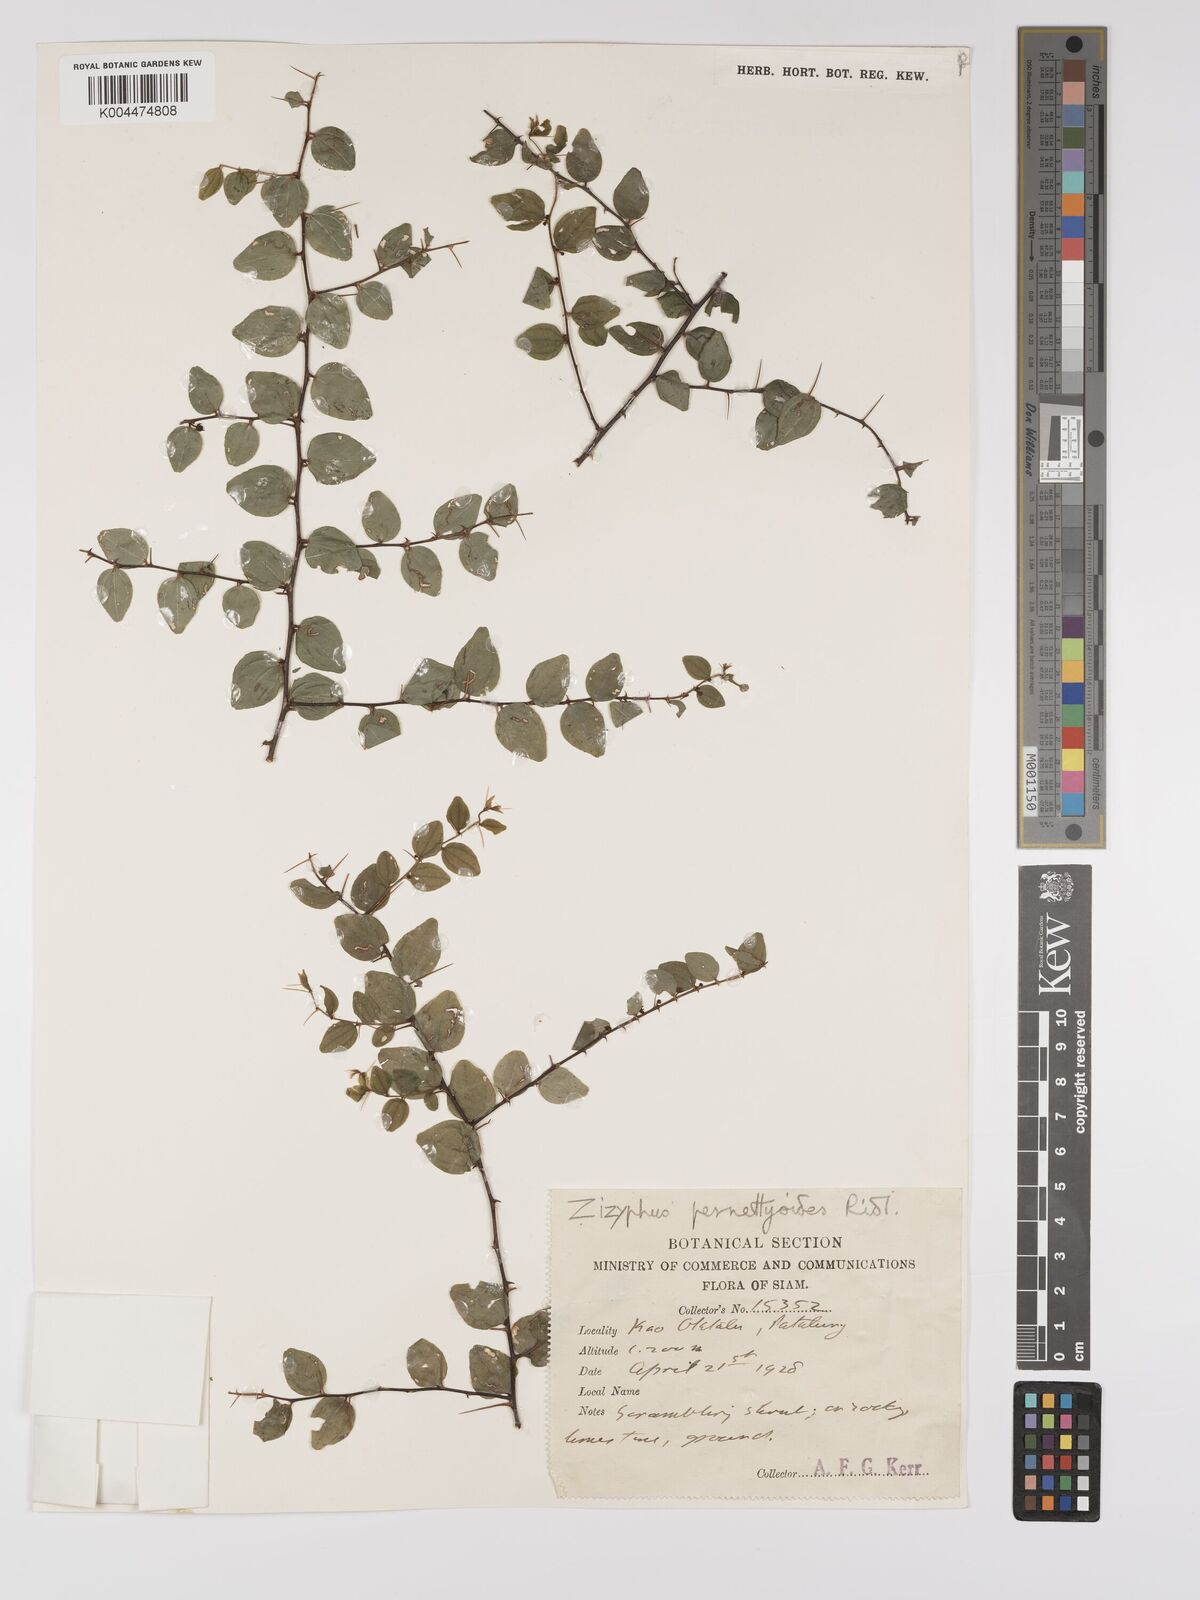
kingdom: Plantae
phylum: Tracheophyta
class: Magnoliopsida
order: Rosales
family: Rhamnaceae
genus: Ziziphus
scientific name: Ziziphus pernettyoides
